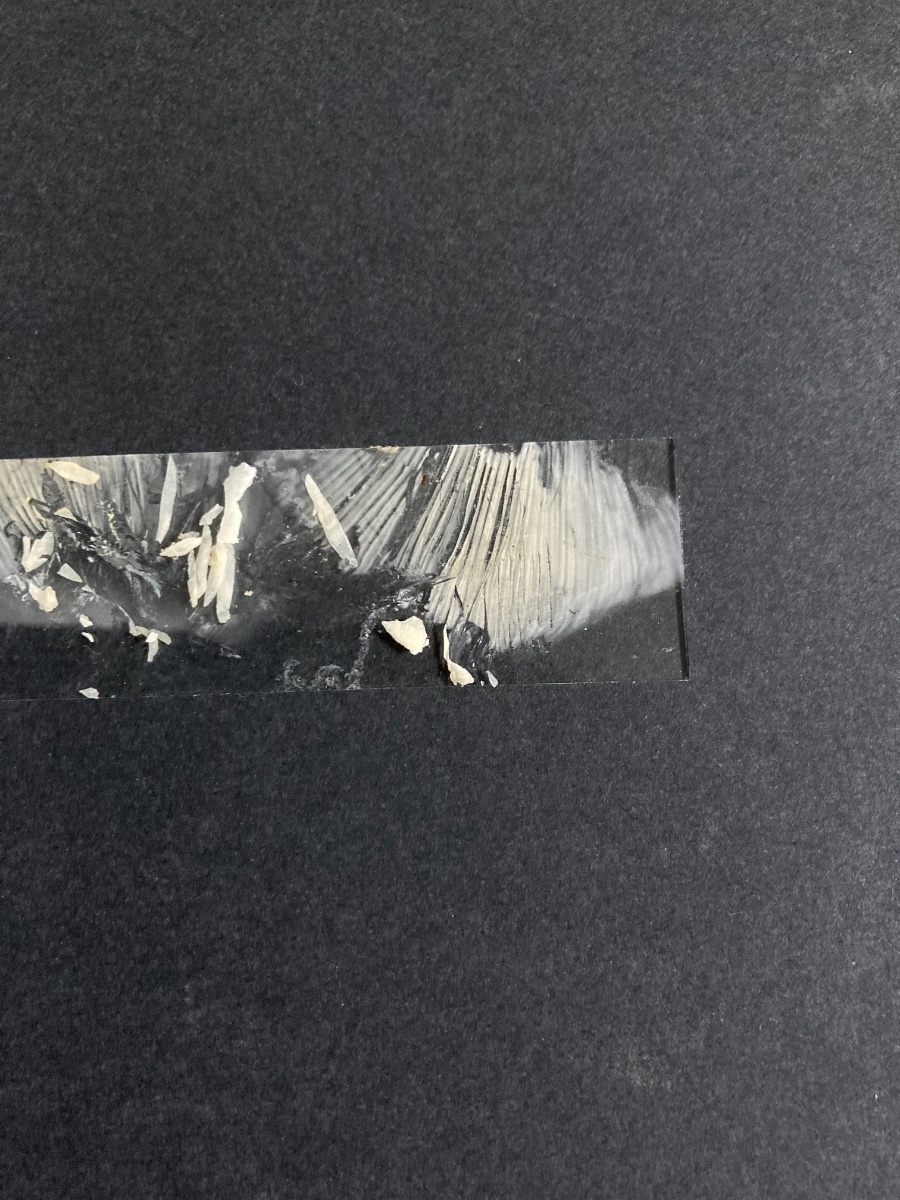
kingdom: Fungi
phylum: Basidiomycota
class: Agaricomycetes
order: Russulales
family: Russulaceae
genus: Russula
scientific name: Russula anatina
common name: ande-skørhat
